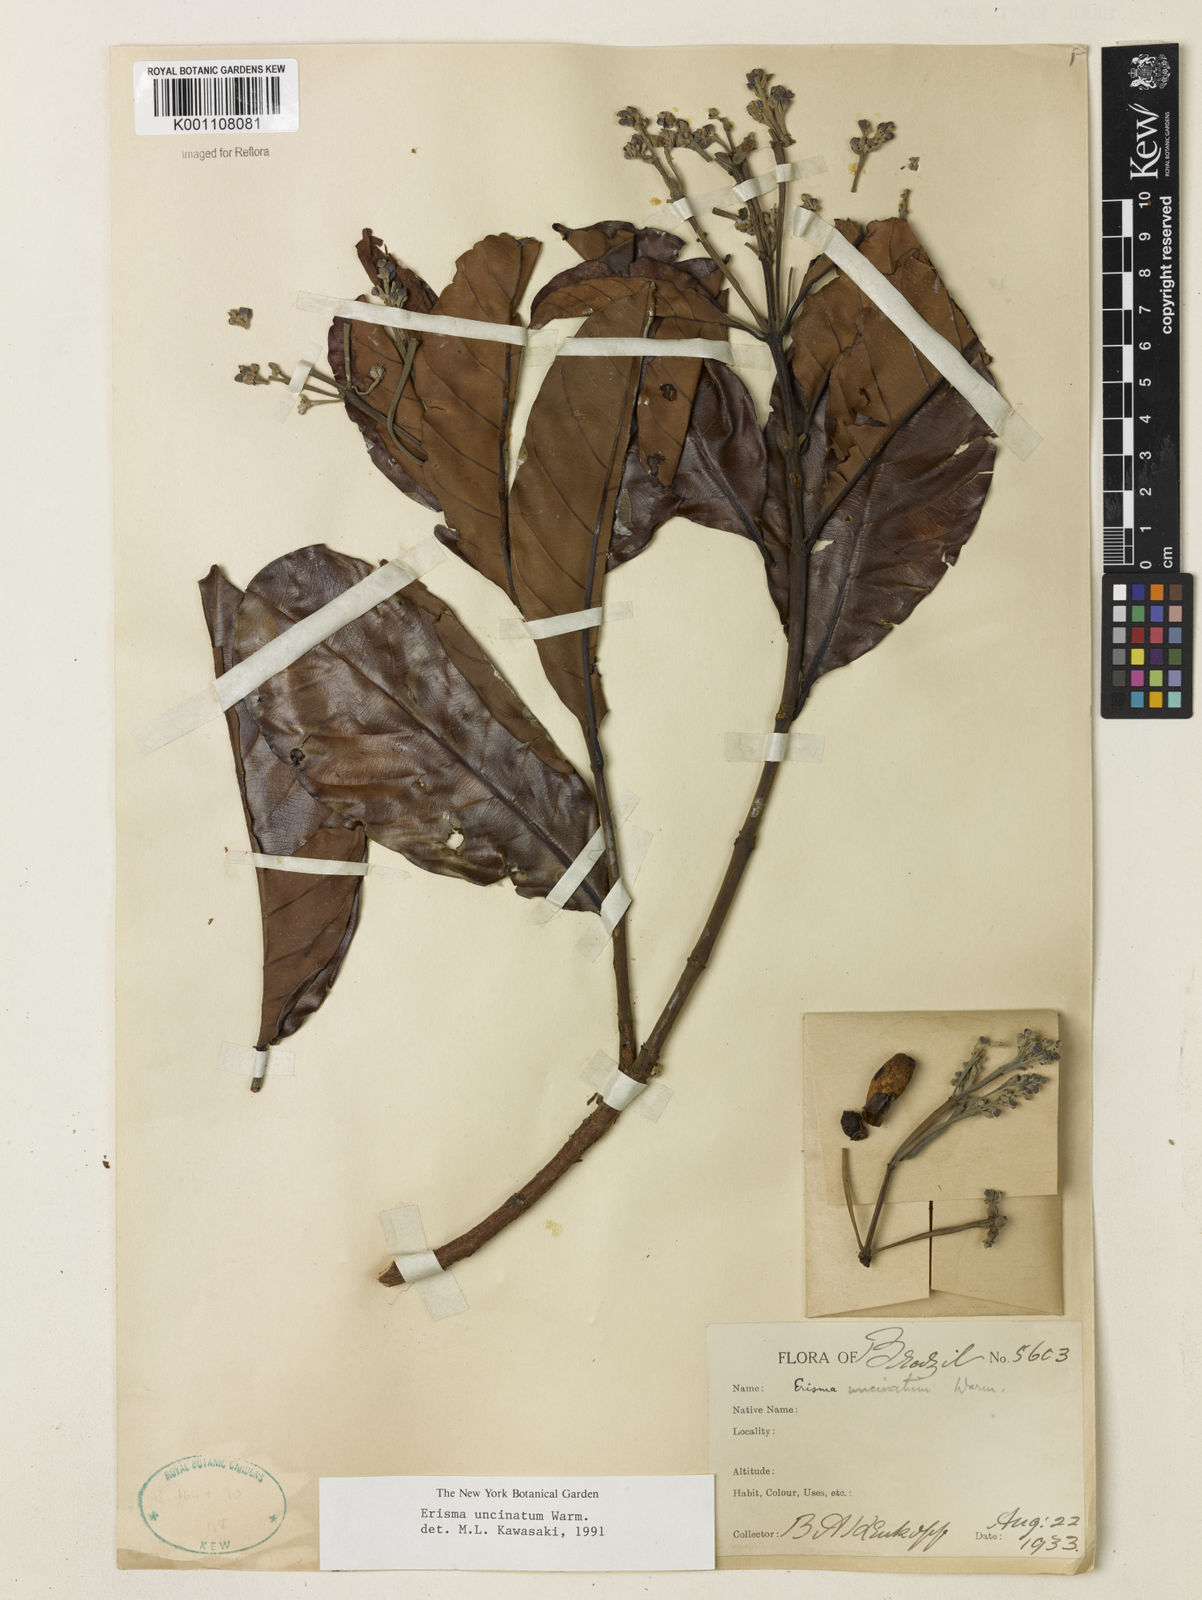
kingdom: Plantae
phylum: Tracheophyta
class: Magnoliopsida
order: Myrtales
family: Vochysiaceae
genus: Erisma
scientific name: Erisma uncinatum
